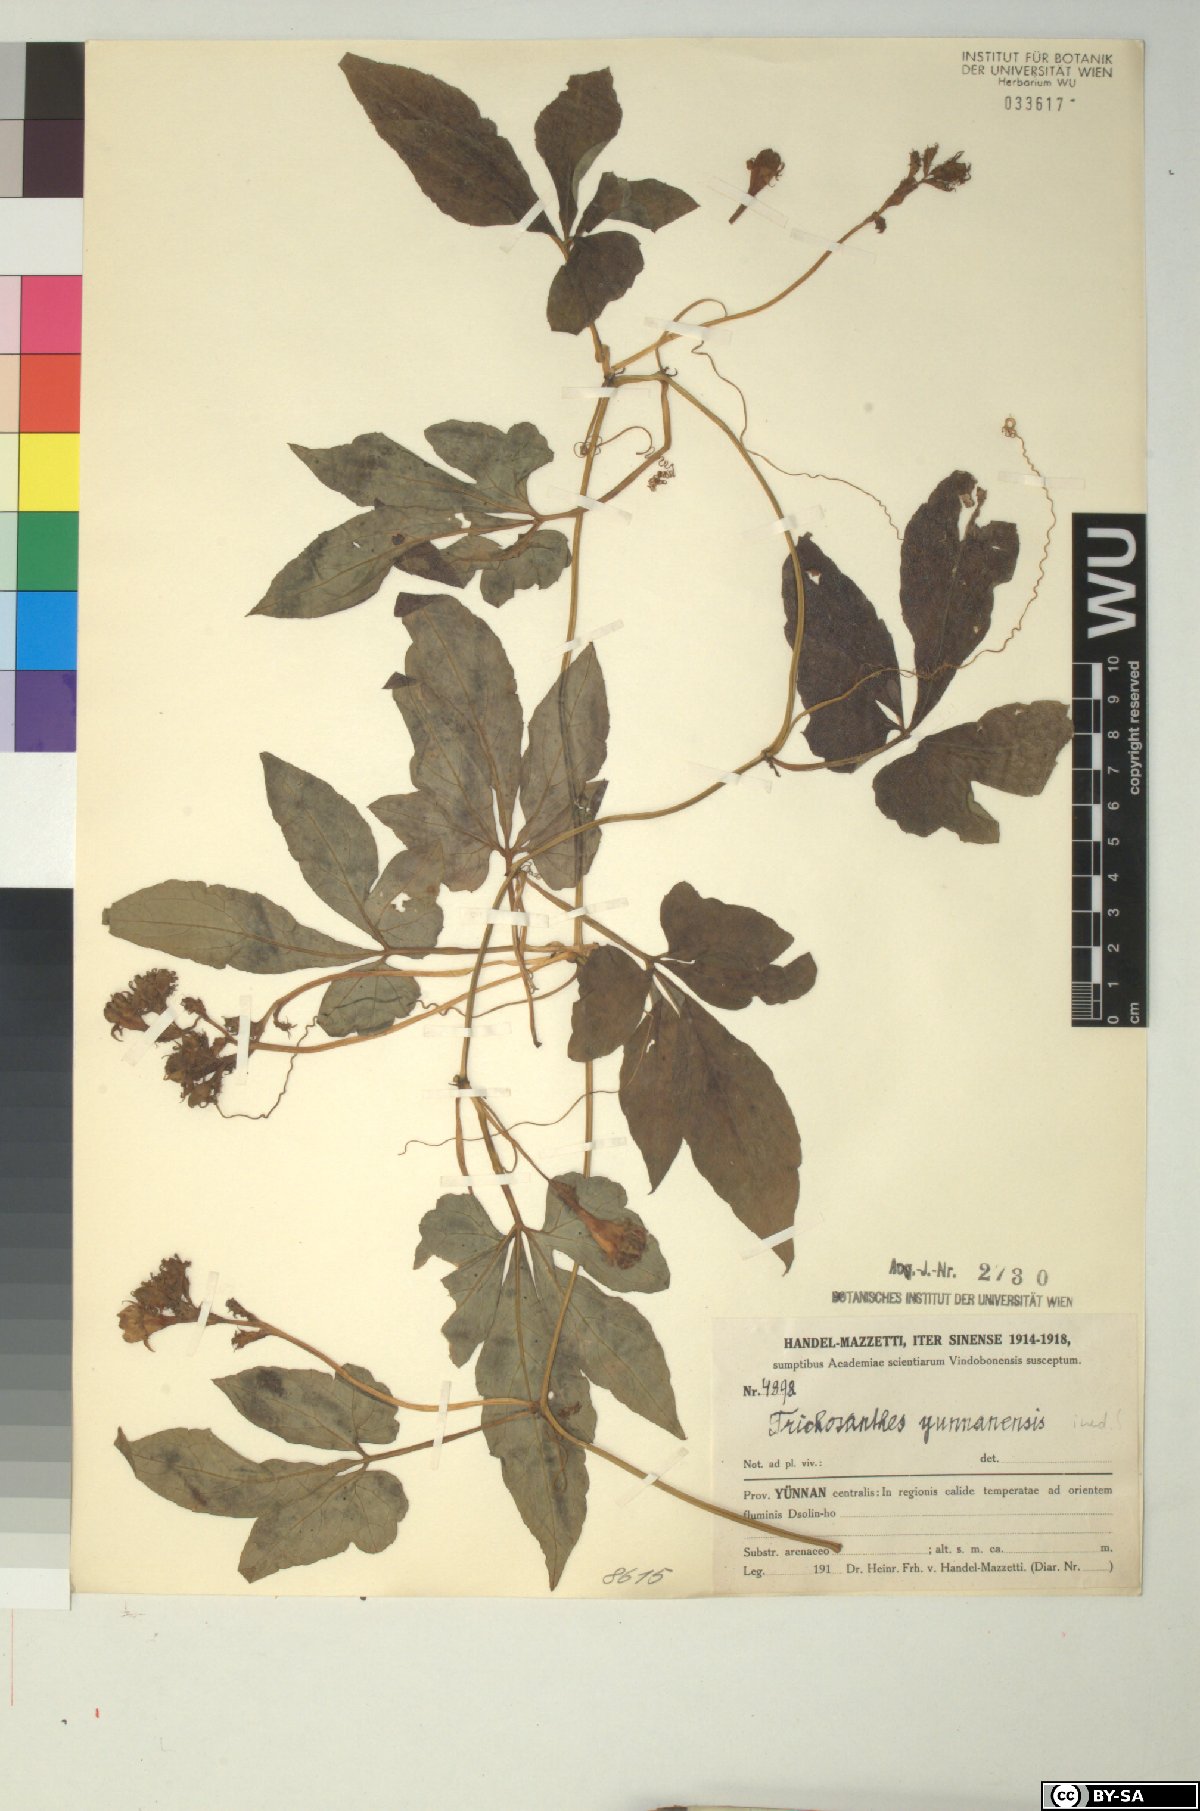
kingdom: Plantae
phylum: Tracheophyta
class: Magnoliopsida
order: Cucurbitales
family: Cucurbitaceae
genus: Trichosanthes
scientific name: Trichosanthes pedata
